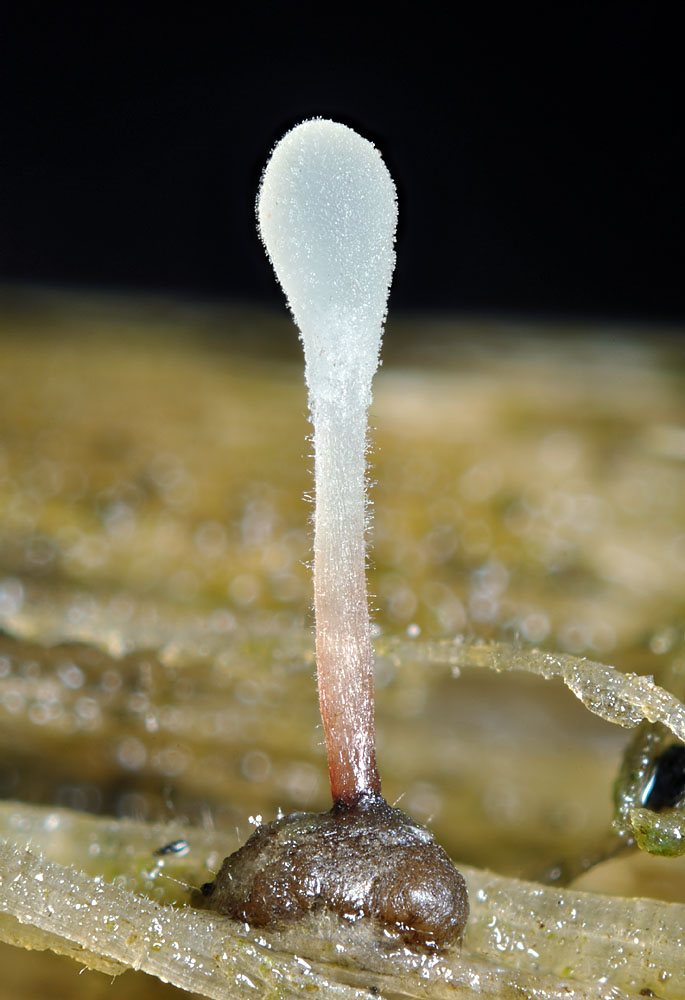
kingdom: Fungi
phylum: Basidiomycota
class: Agaricomycetes
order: Agaricales
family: Typhulaceae
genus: Typhula
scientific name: Typhula capitata
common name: hoved-trådkølle
